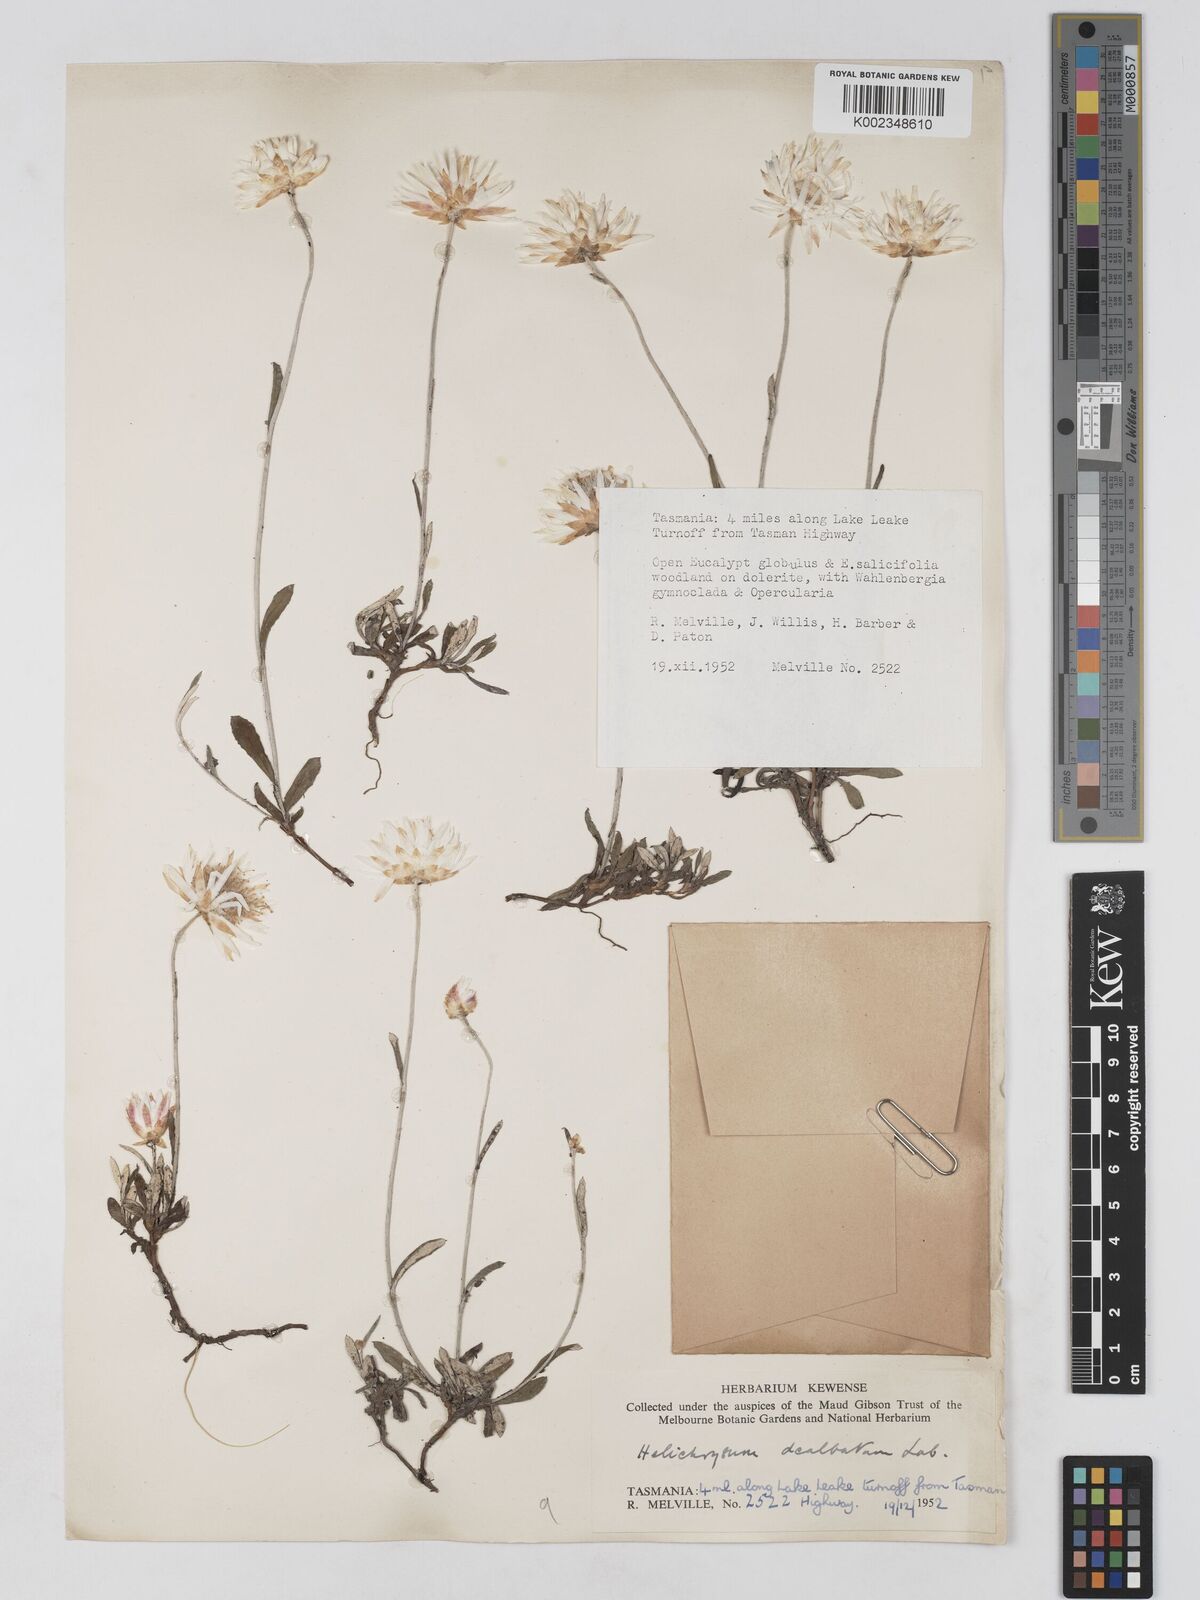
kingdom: Plantae
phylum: Tracheophyta
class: Magnoliopsida
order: Asterales
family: Asteraceae
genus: Argentipallium
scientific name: Argentipallium dealbatum
